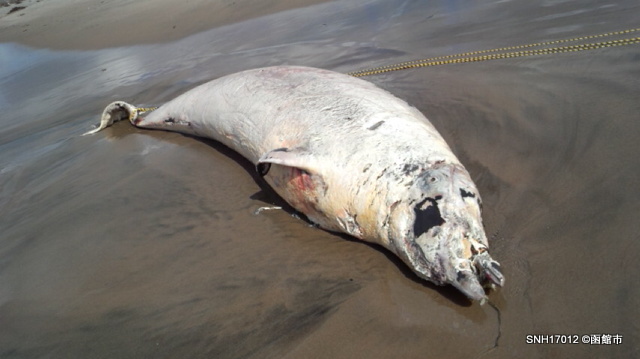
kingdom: Animalia
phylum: Chordata
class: Mammalia
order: Cetacea
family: Hyperoodontidae
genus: Mesoplodon
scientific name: Mesoplodon stejnegeri
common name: Stejneger's beaked whale
